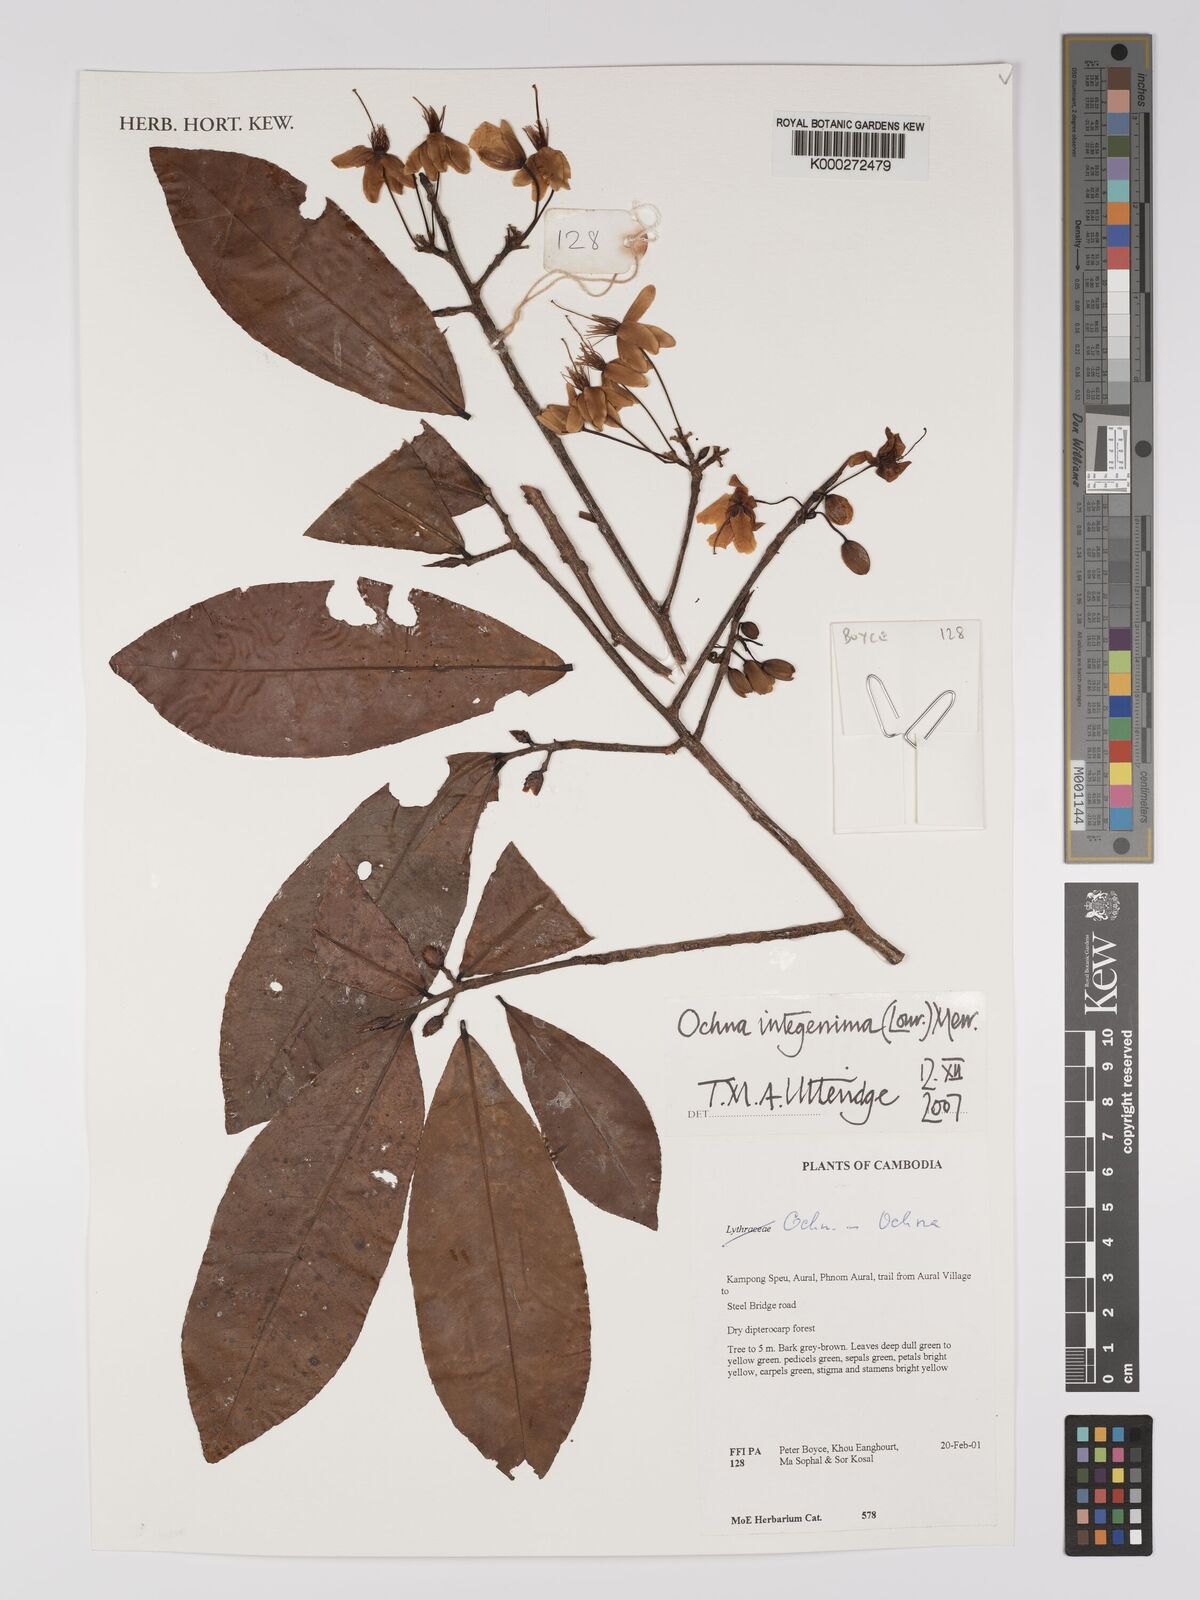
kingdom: Plantae
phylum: Tracheophyta
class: Magnoliopsida
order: Malpighiales
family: Ochnaceae
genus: Ochna
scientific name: Ochna integerrima
